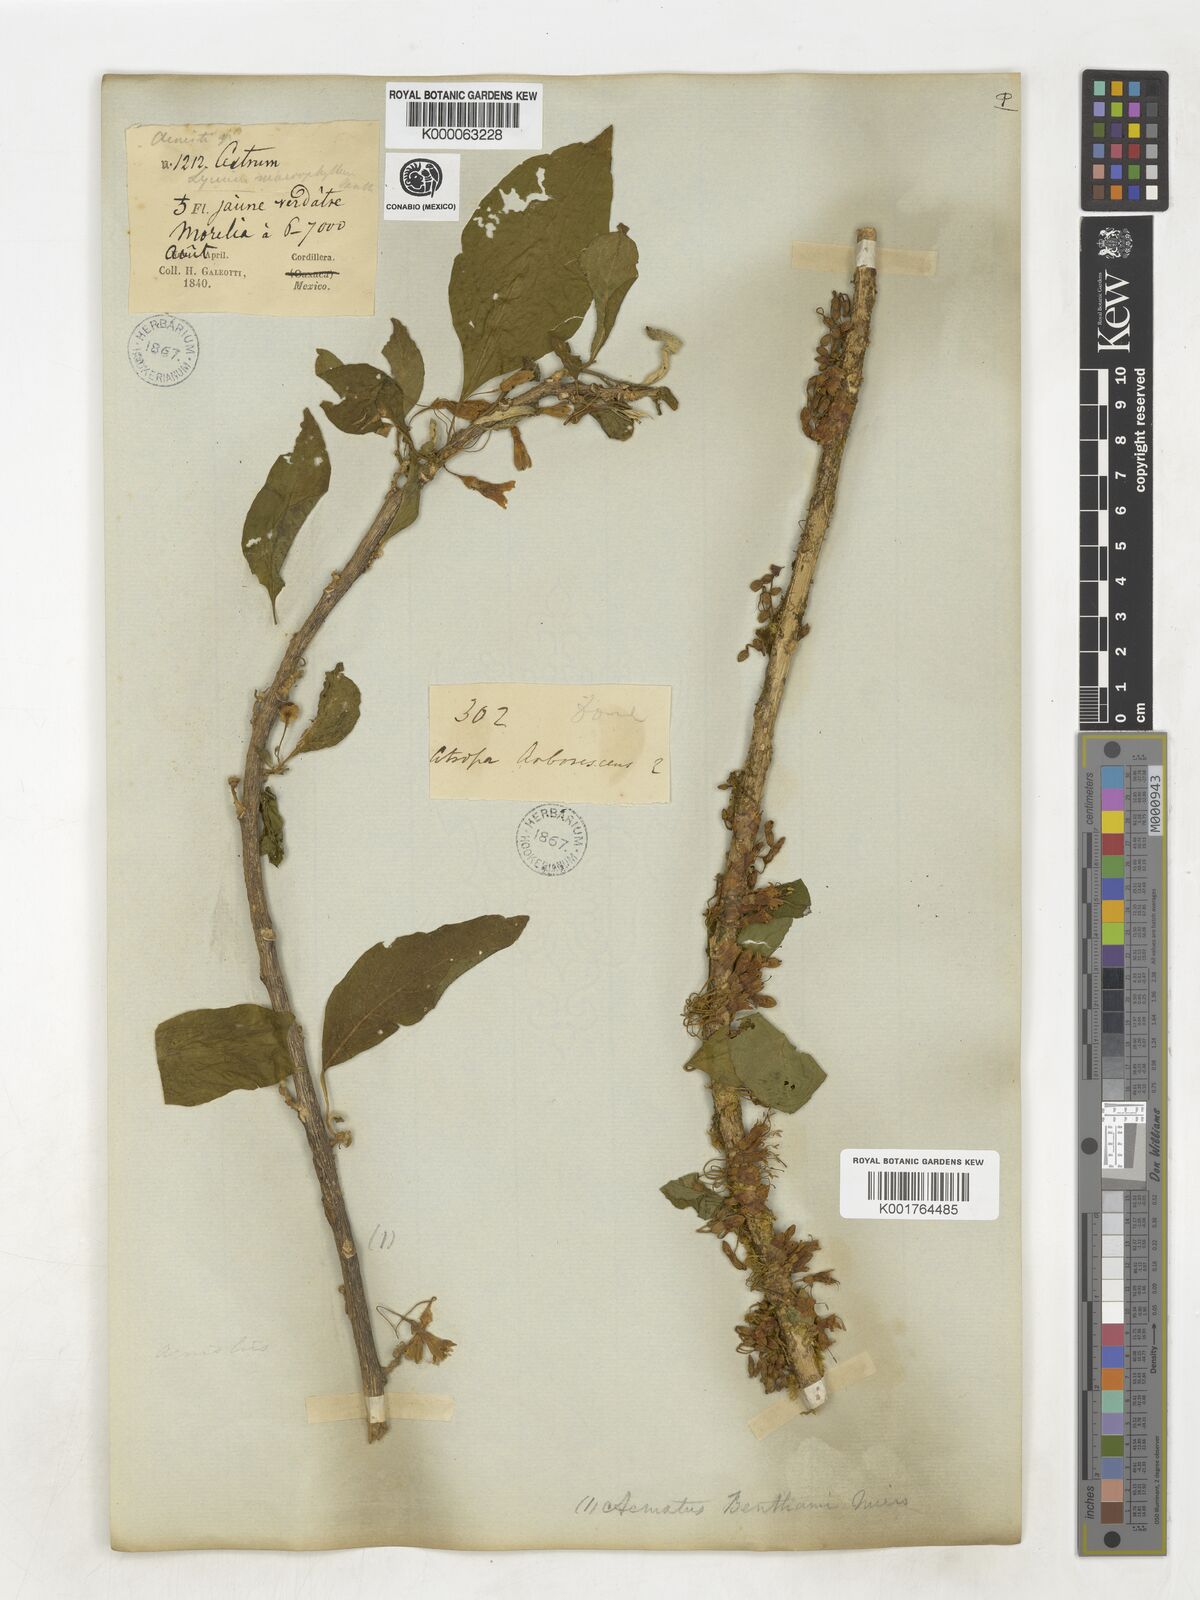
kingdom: Plantae
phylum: Tracheophyta
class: Magnoliopsida
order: Solanales
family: Solanaceae
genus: Iochroma
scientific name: Iochroma arborescens
